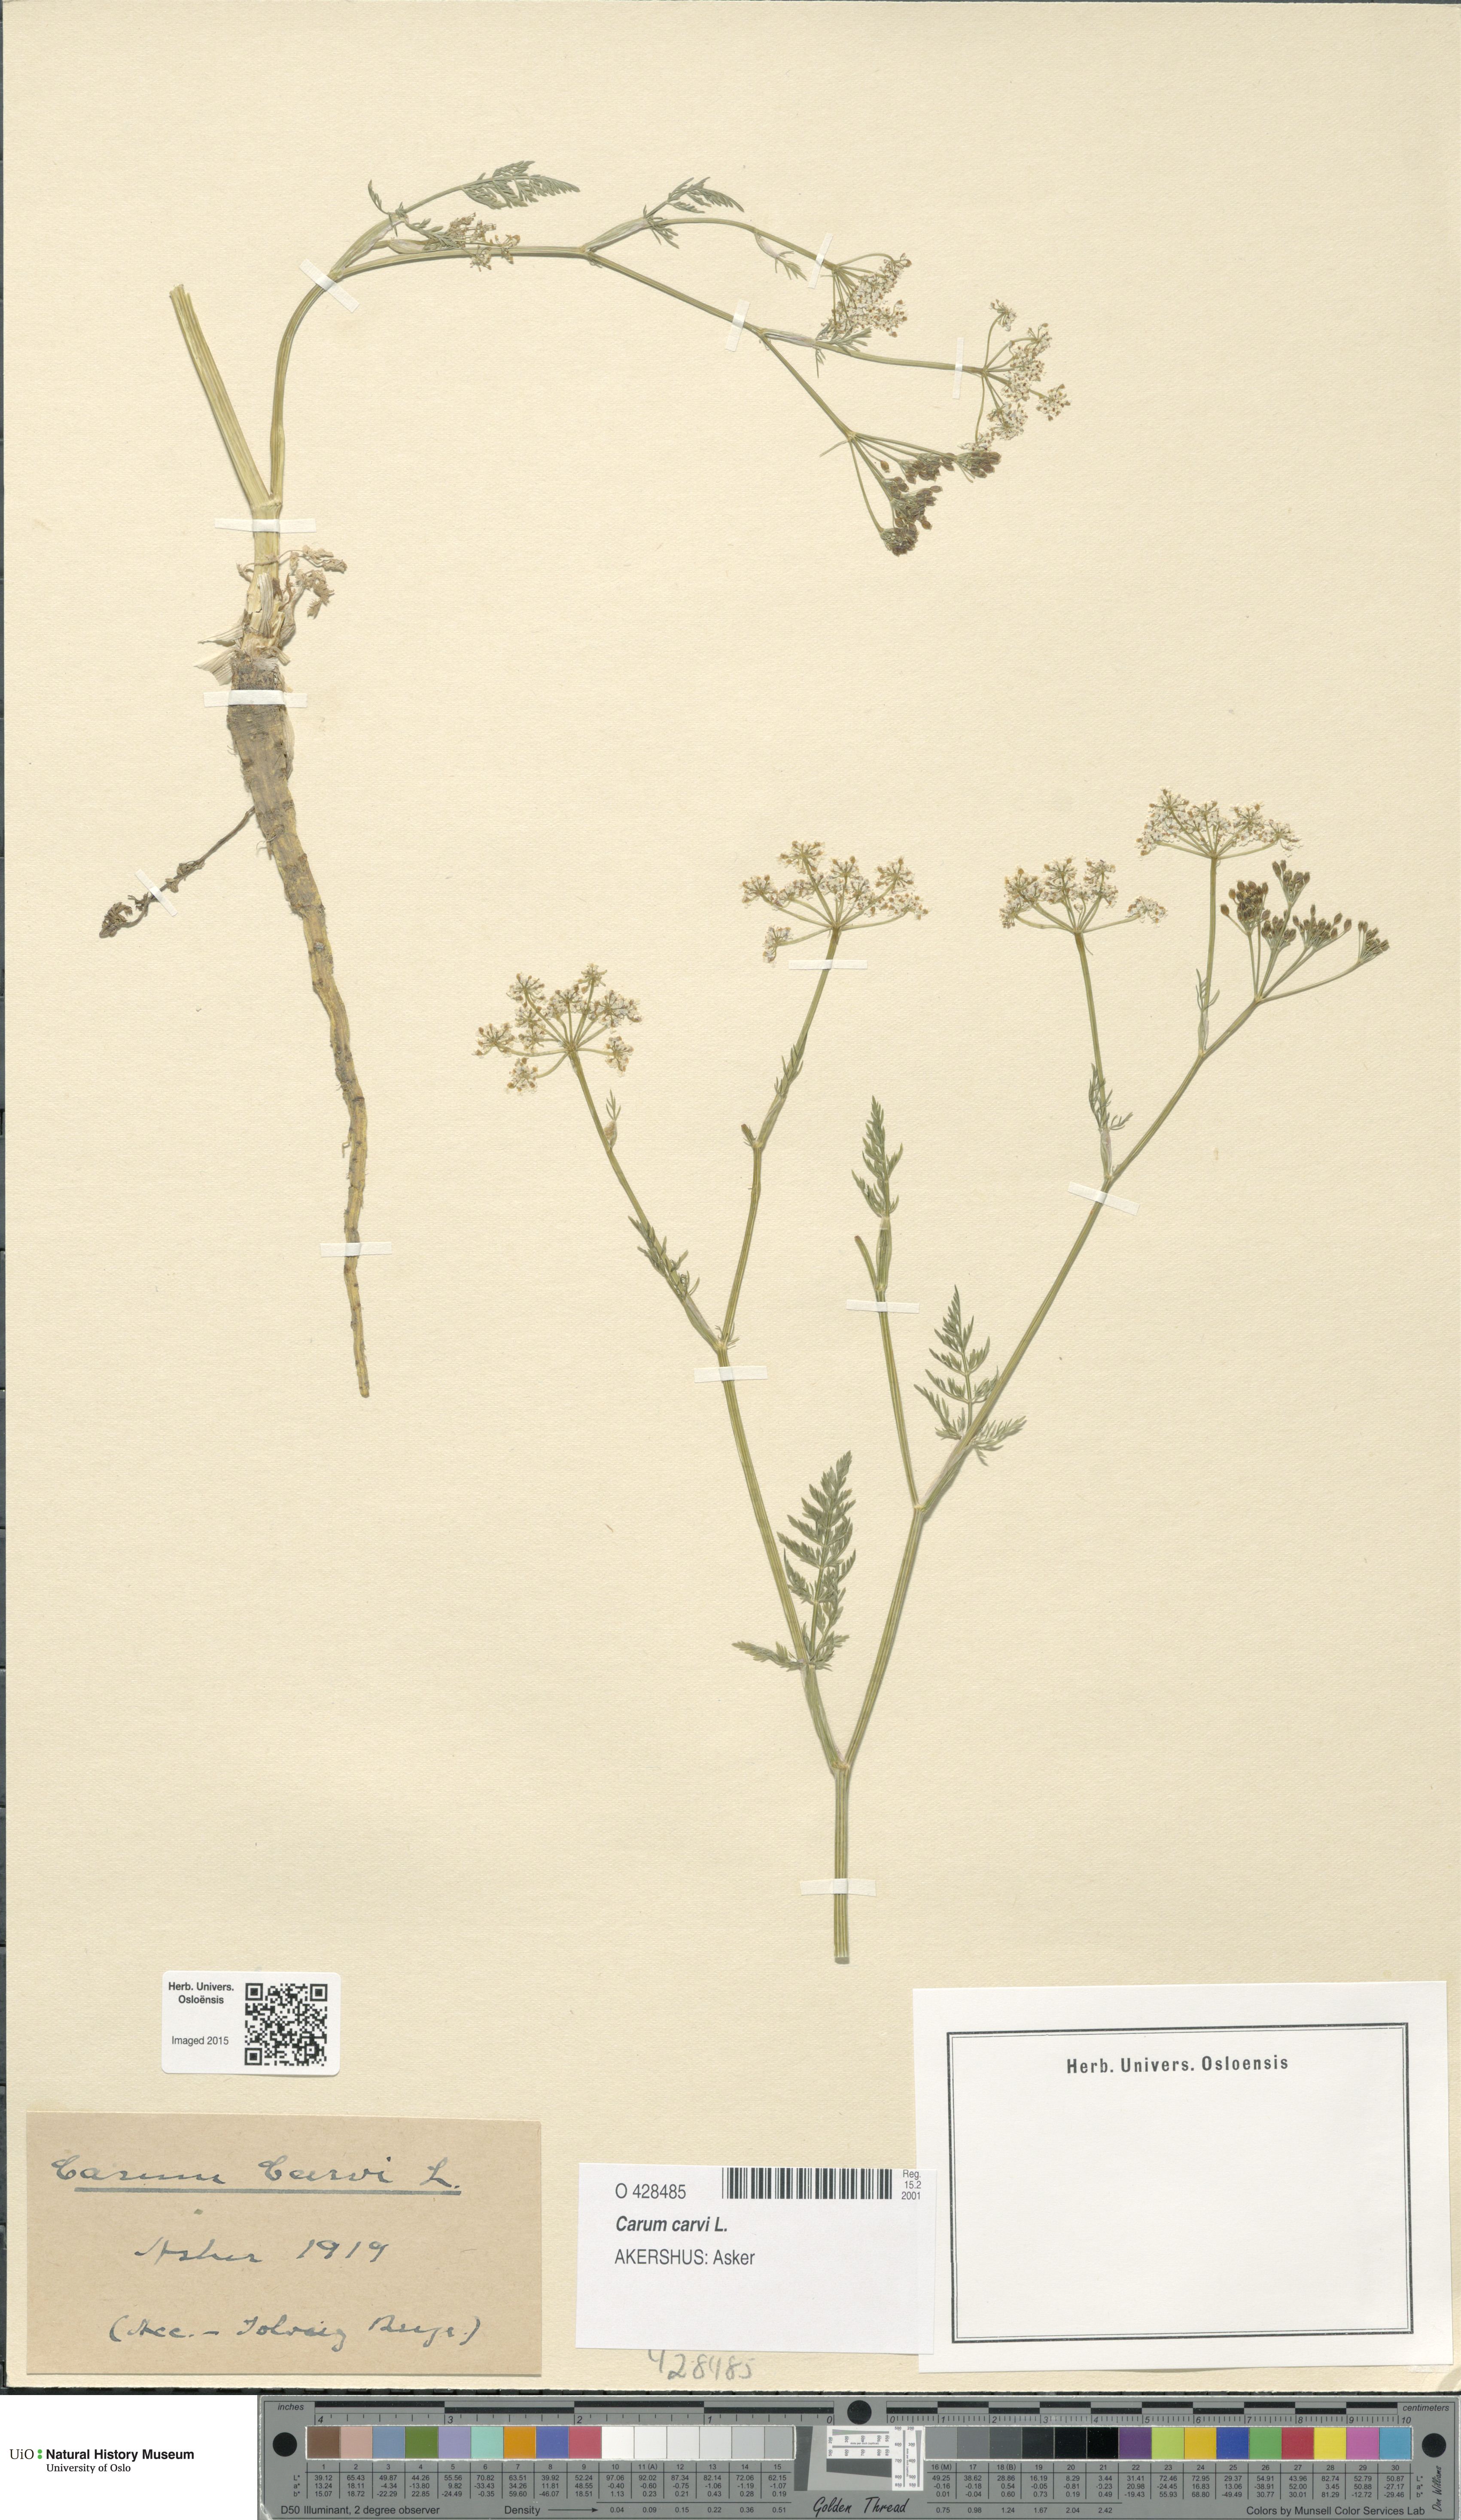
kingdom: Plantae
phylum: Tracheophyta
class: Magnoliopsida
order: Apiales
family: Apiaceae
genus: Carum
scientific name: Carum carvi
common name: Caraway
